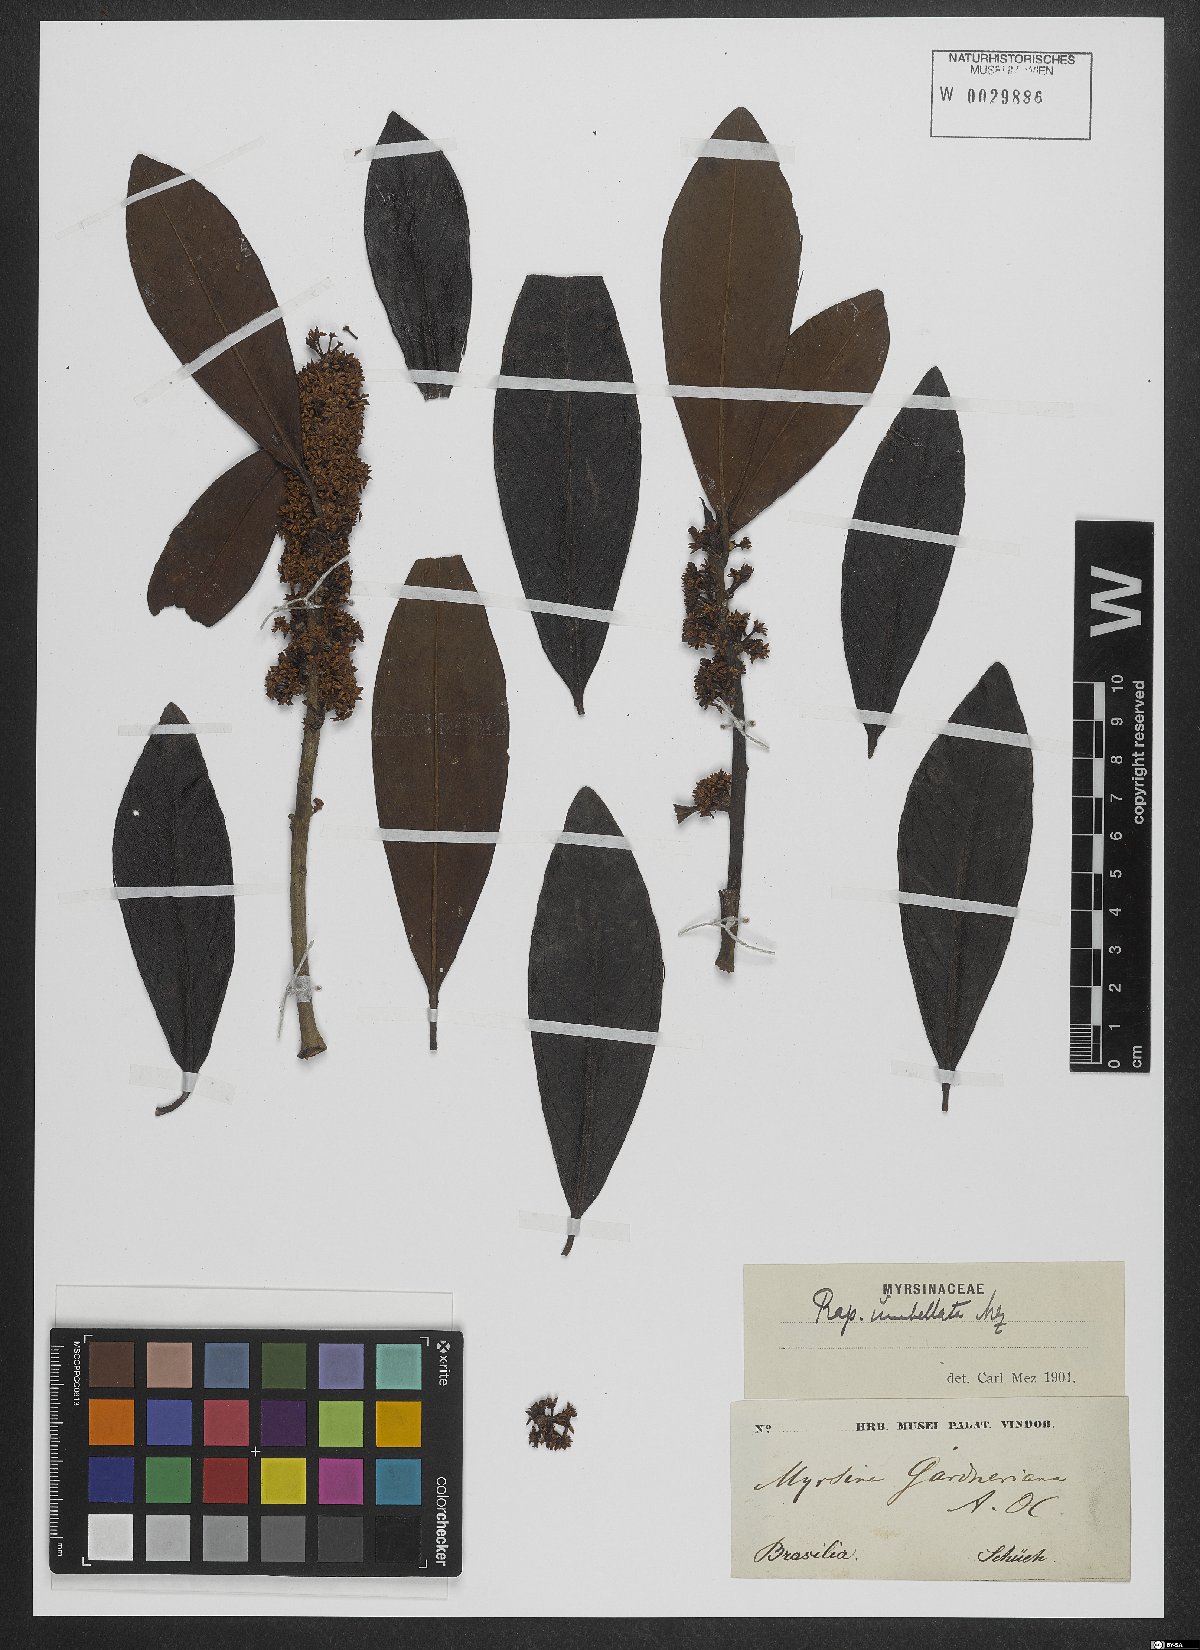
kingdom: Plantae
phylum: Tracheophyta
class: Magnoliopsida
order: Ericales
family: Primulaceae
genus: Myrsine
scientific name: Myrsine umbellata
